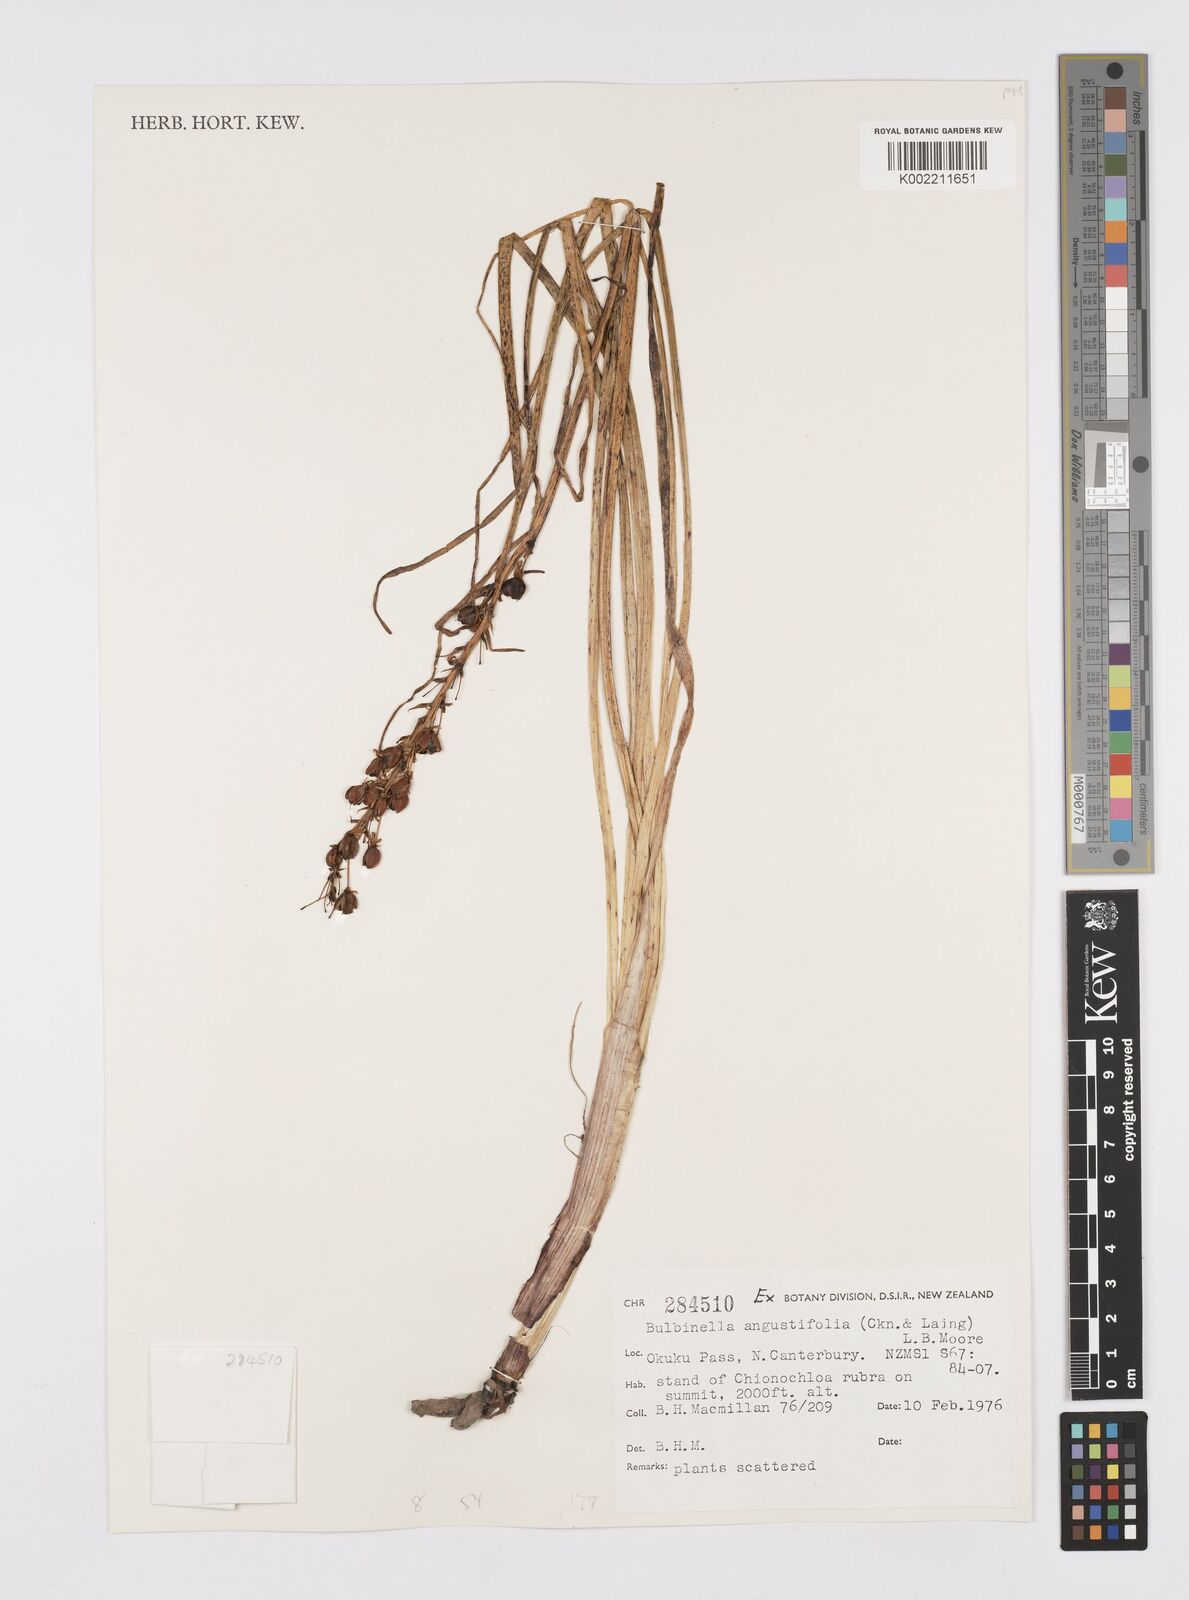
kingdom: Plantae
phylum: Tracheophyta
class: Liliopsida
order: Asparagales
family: Asphodelaceae
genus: Bulbinella
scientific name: Bulbinella angustifolia
